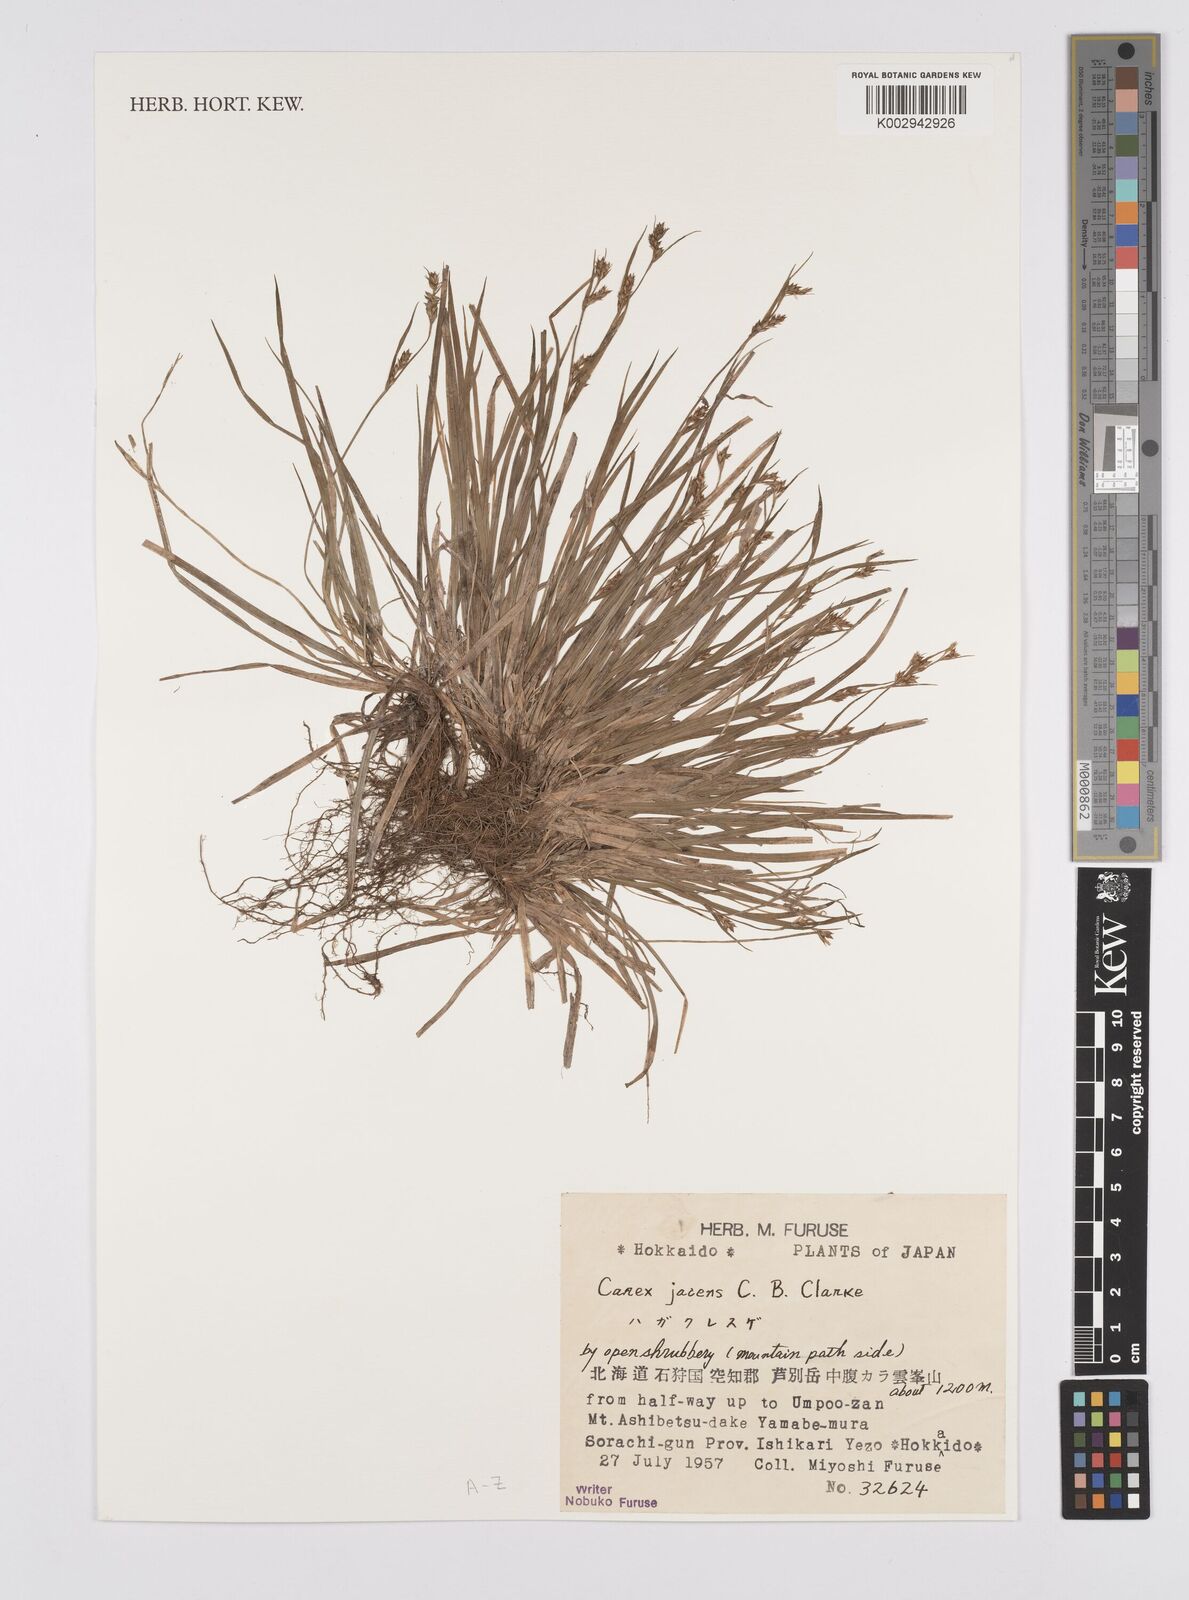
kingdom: Plantae
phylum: Tracheophyta
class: Liliopsida
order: Poales
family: Cyperaceae
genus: Carex
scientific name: Carex jacens
